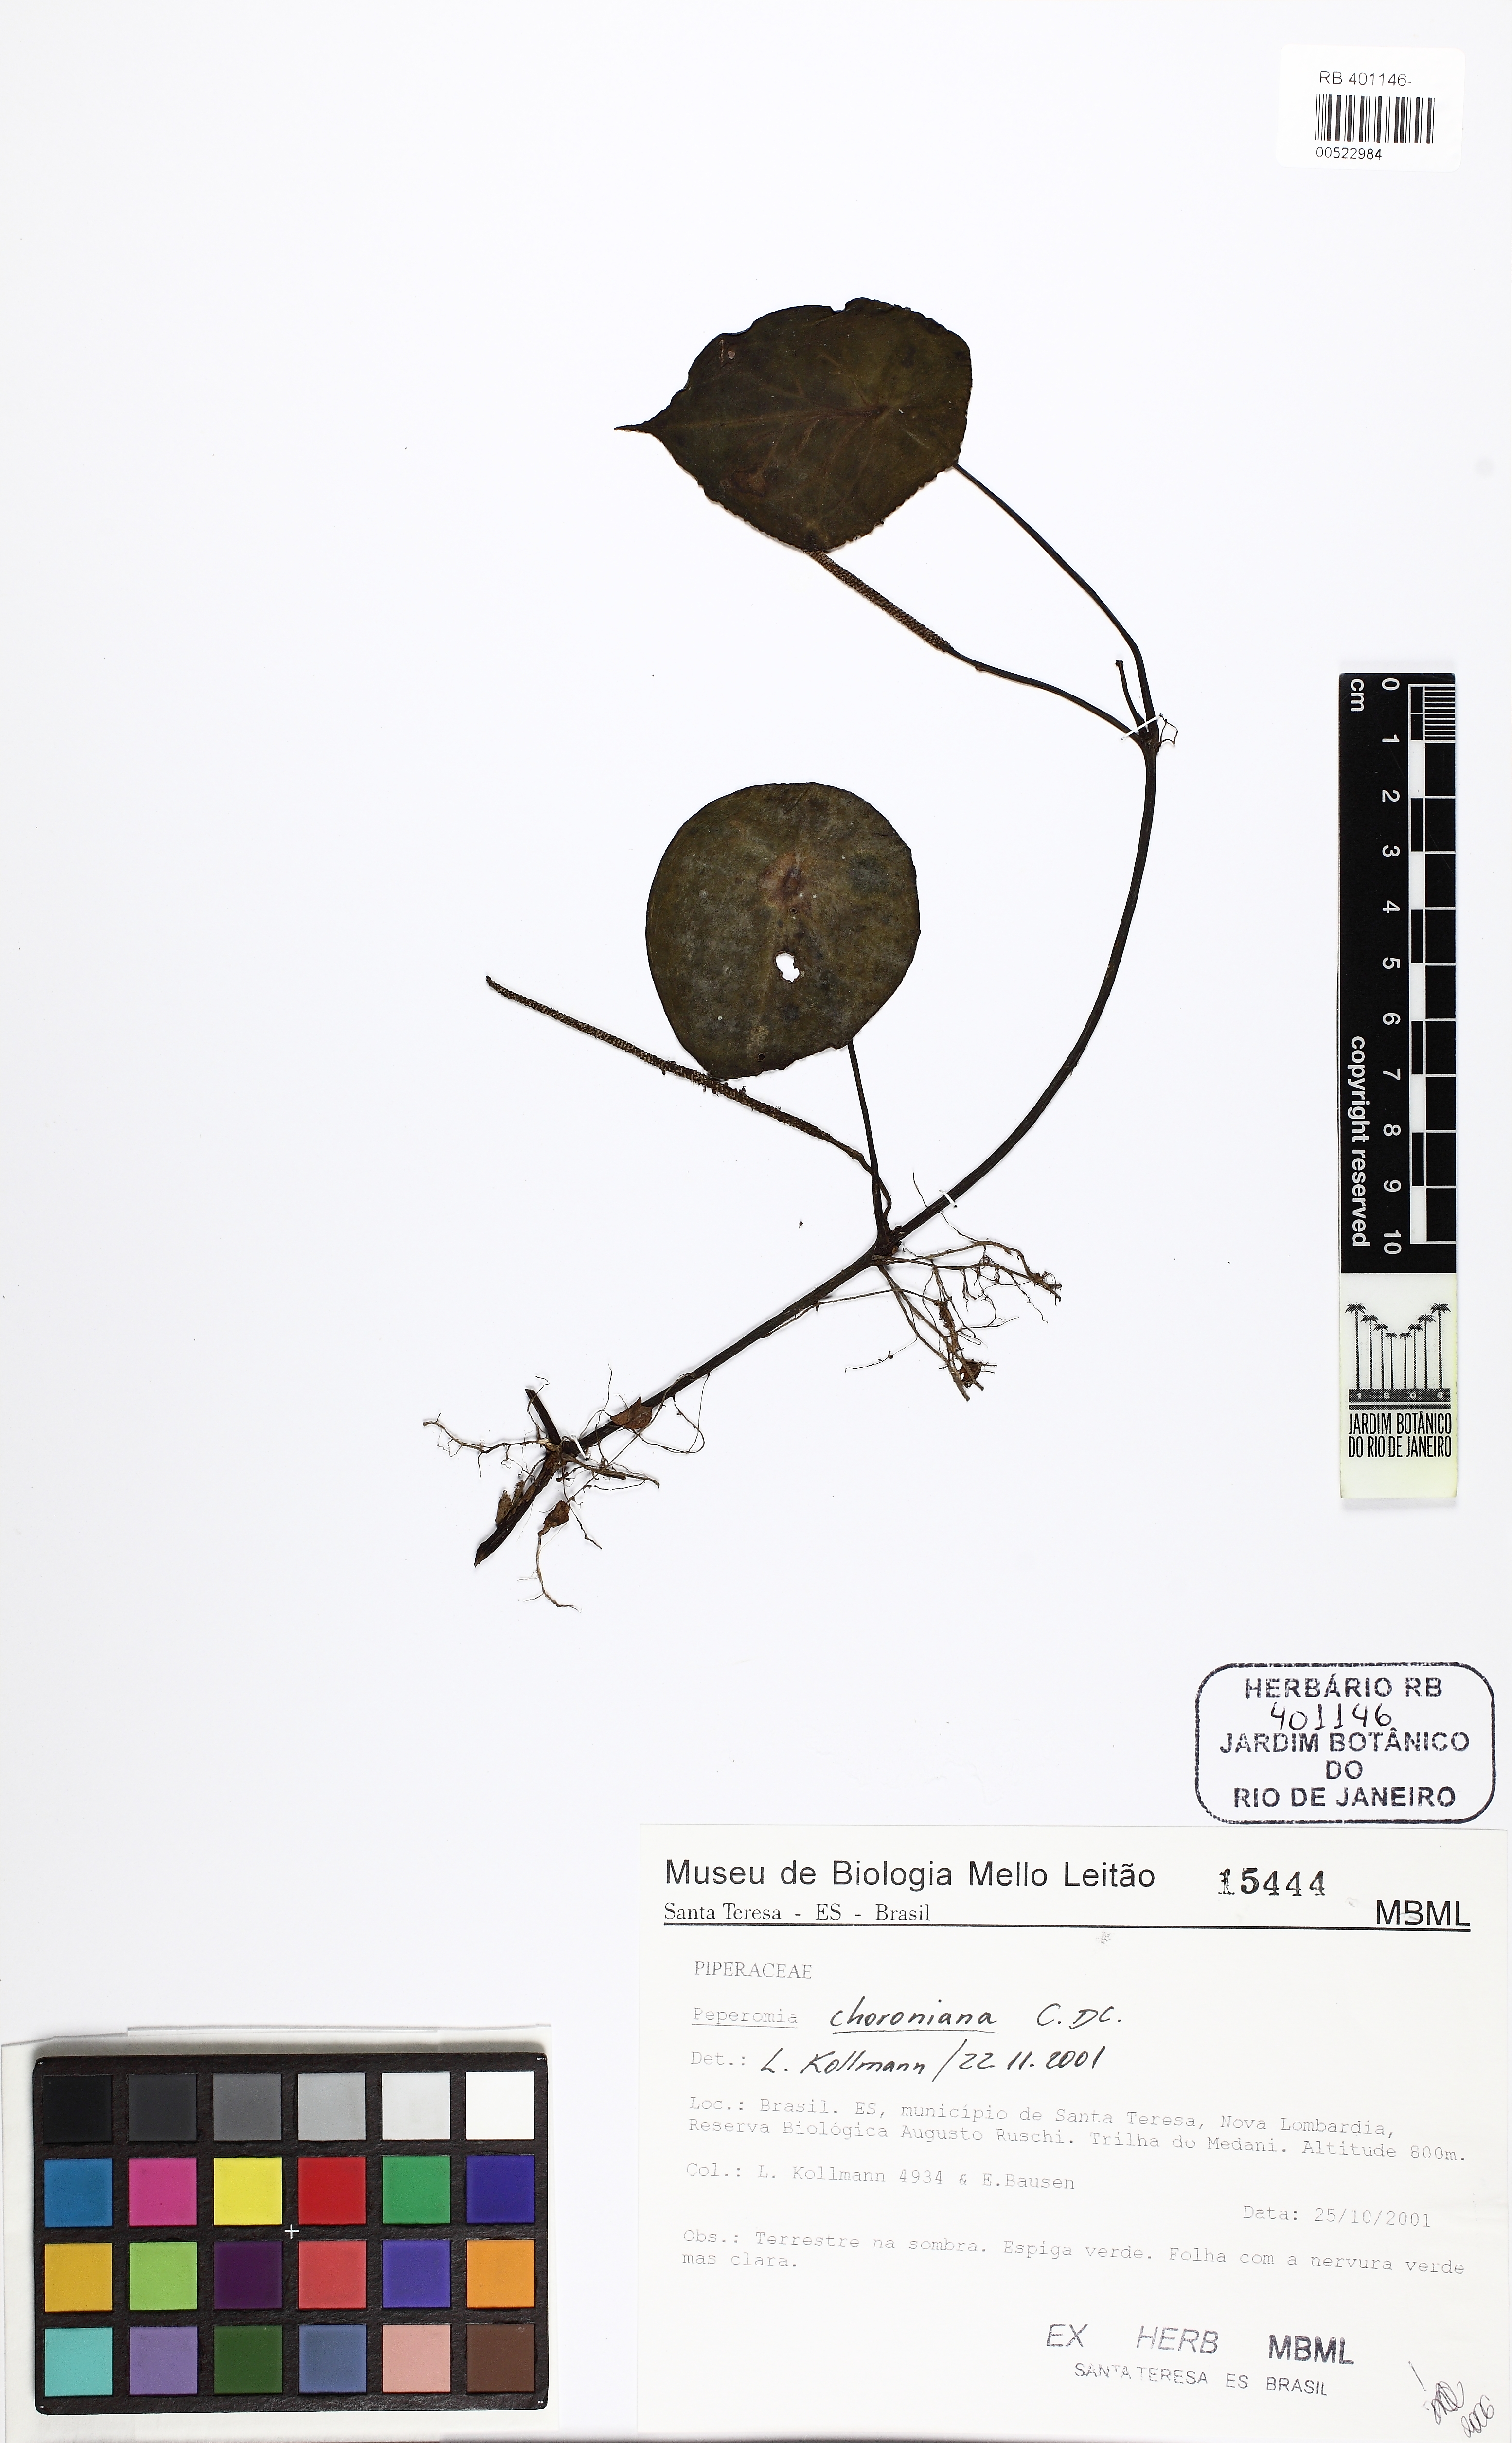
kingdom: Plantae
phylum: Tracheophyta
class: Magnoliopsida
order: Piperales
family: Piperaceae
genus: Peperomia
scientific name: Peperomia choroniana
